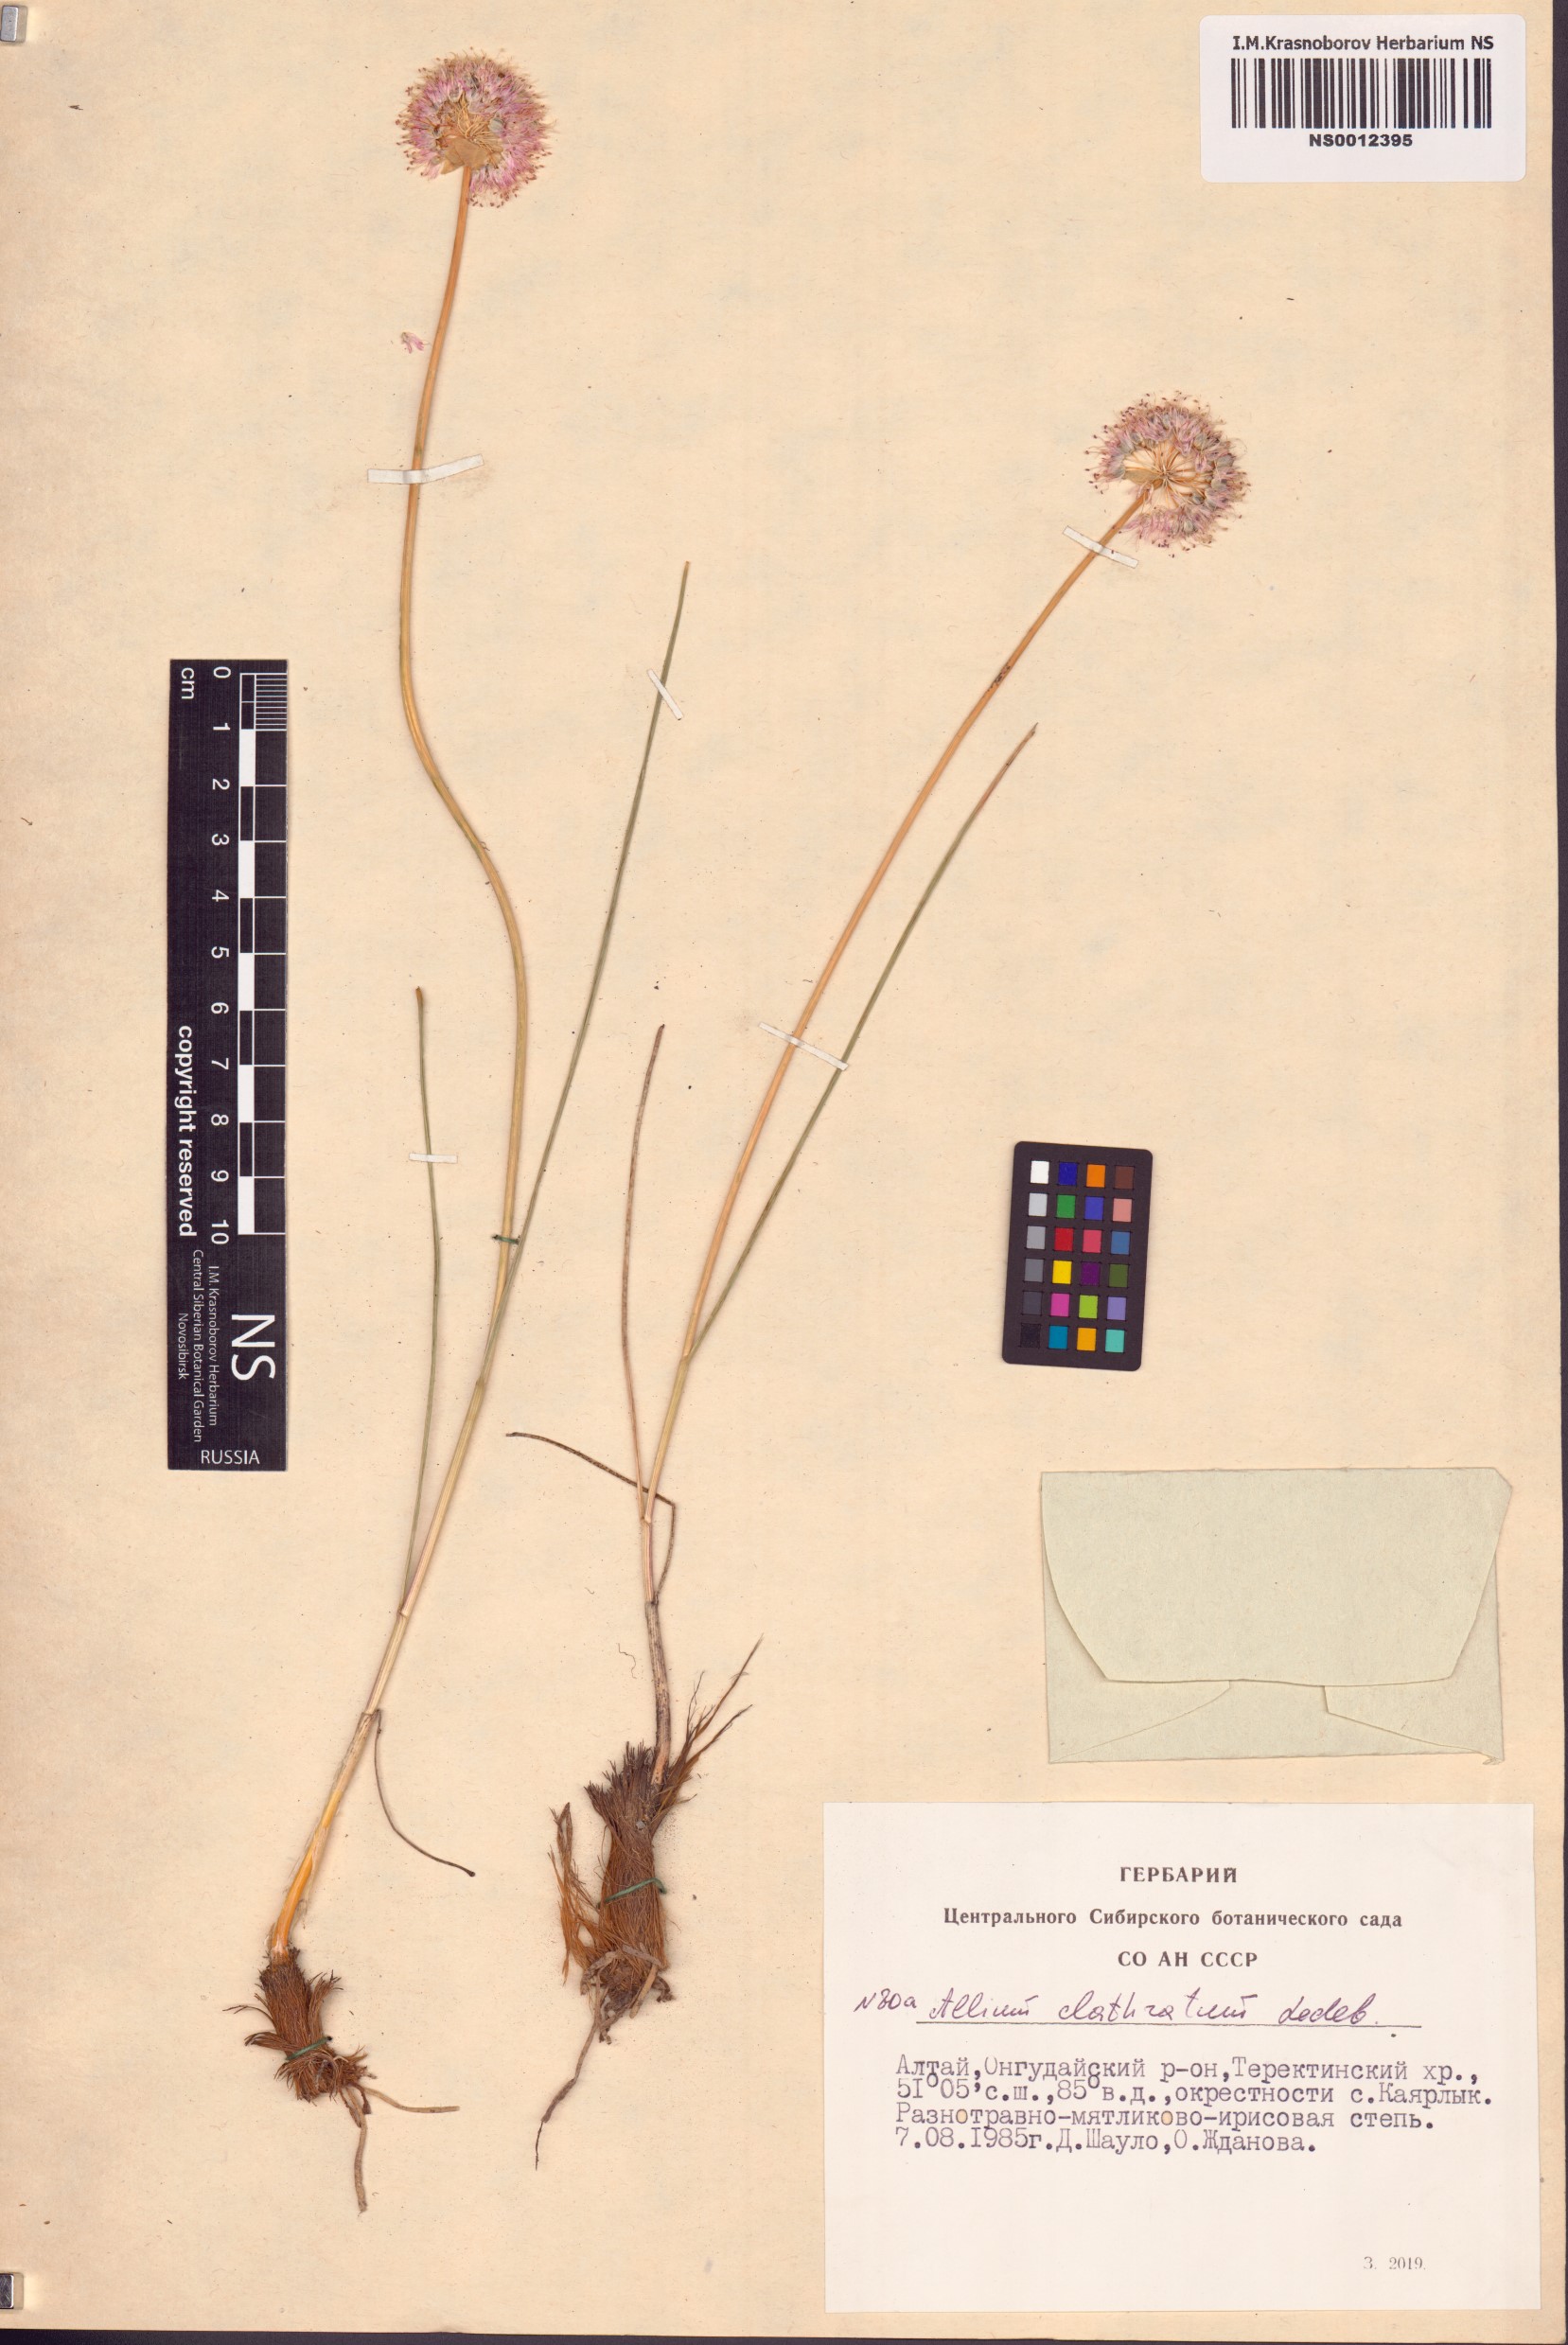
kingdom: Plantae
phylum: Tracheophyta
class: Liliopsida
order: Asparagales
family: Amaryllidaceae
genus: Allium
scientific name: Allium clathratum
